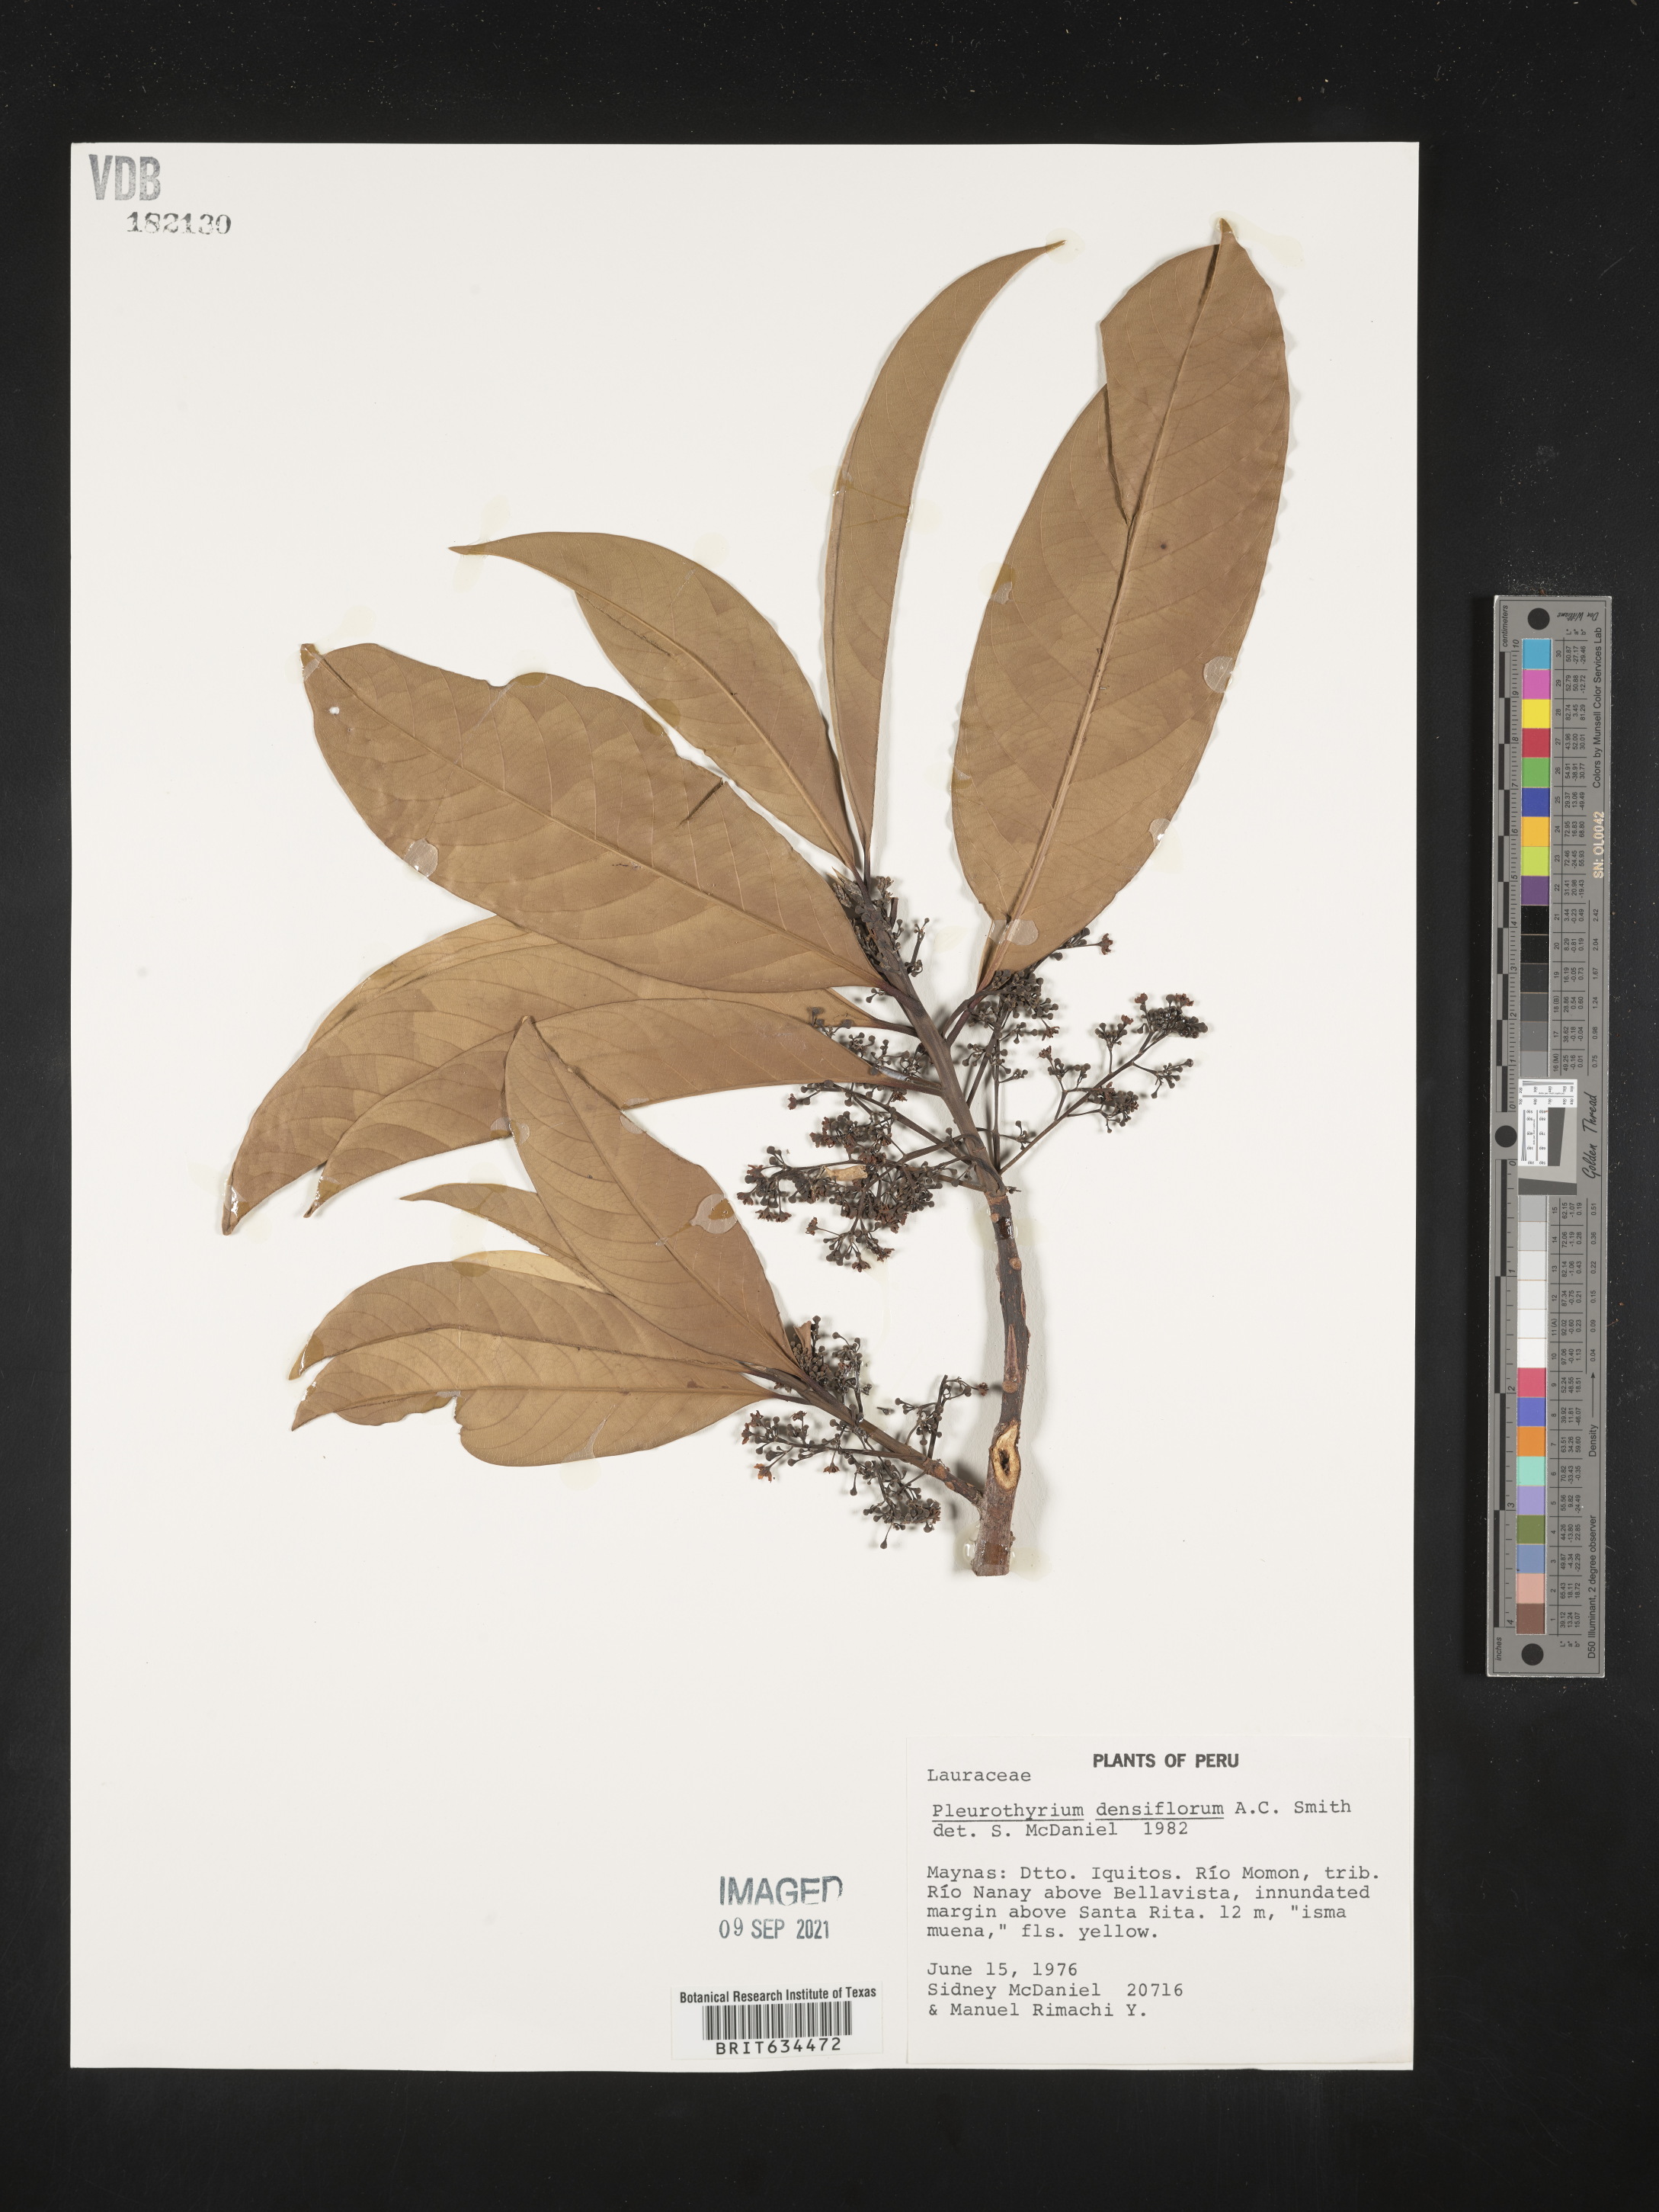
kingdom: Plantae
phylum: Tracheophyta
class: Magnoliopsida
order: Laurales
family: Lauraceae
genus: Pleurothyrium
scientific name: Pleurothyrium
